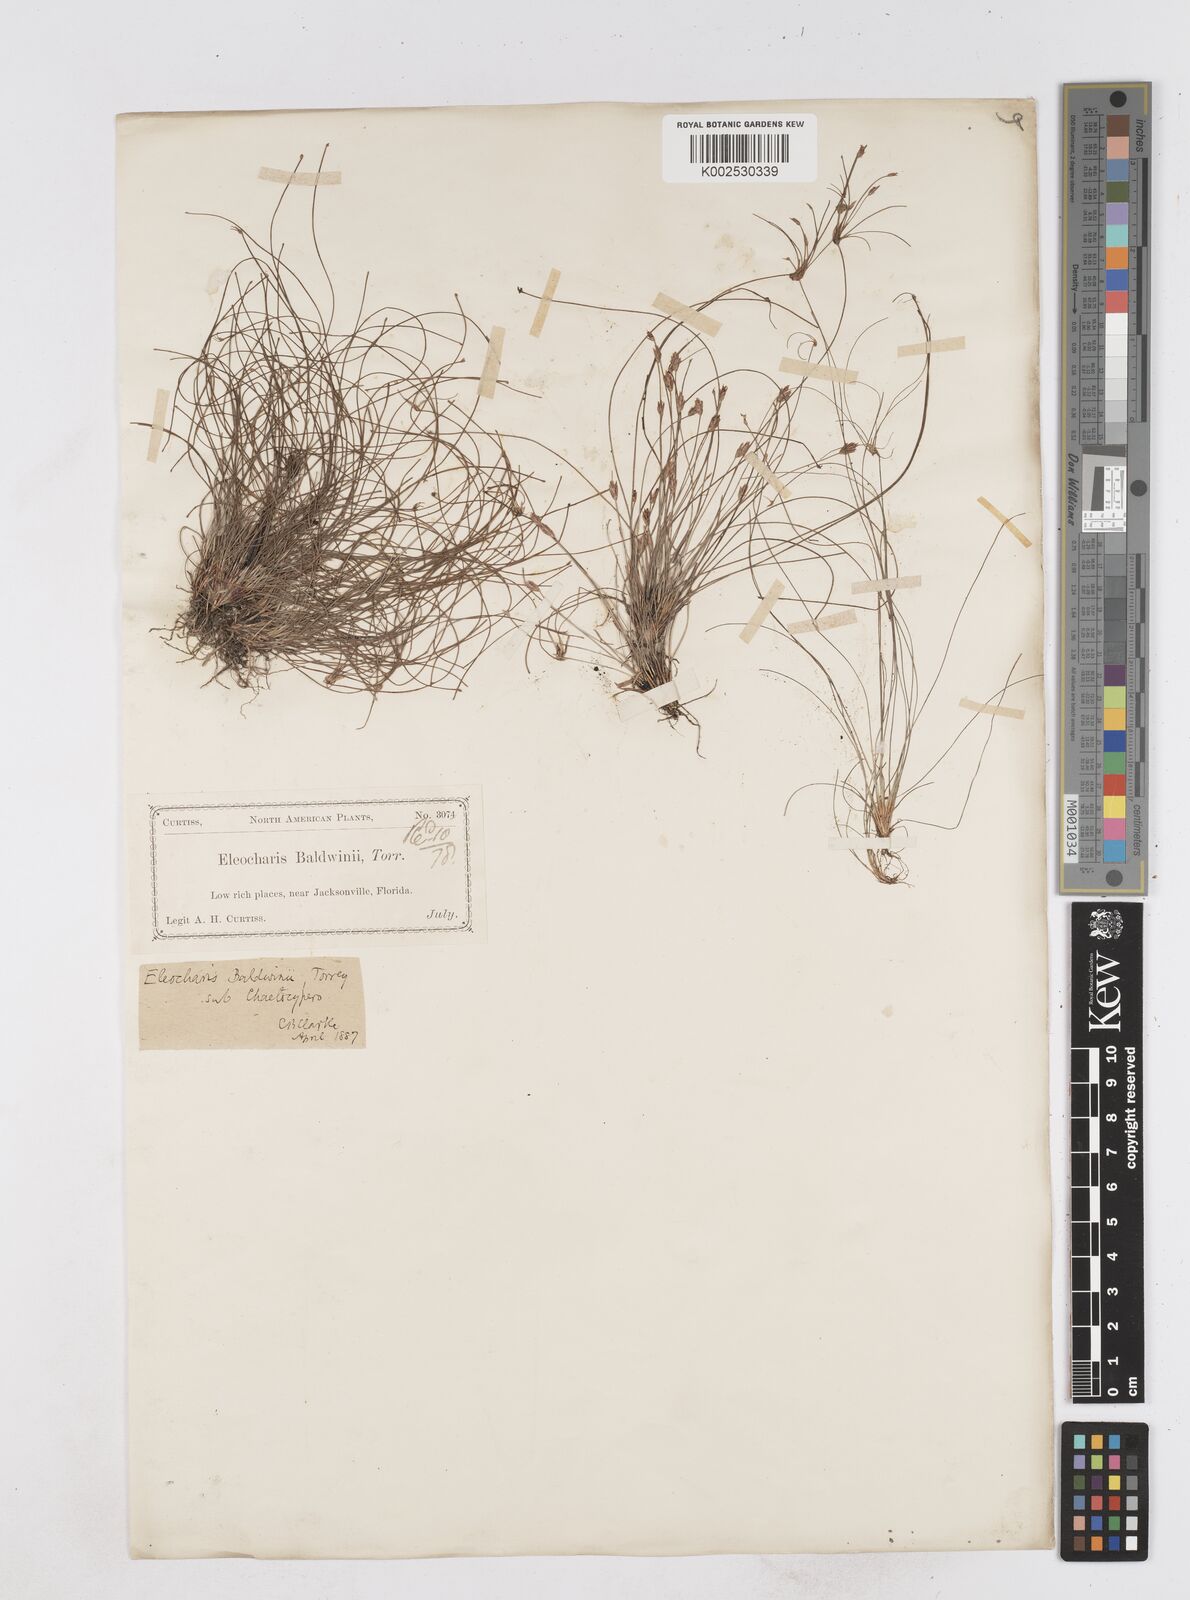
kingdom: Plantae
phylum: Tracheophyta
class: Liliopsida
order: Poales
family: Cyperaceae
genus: Eleocharis
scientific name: Eleocharis baldwinii
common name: Baldwin's spike-rush
